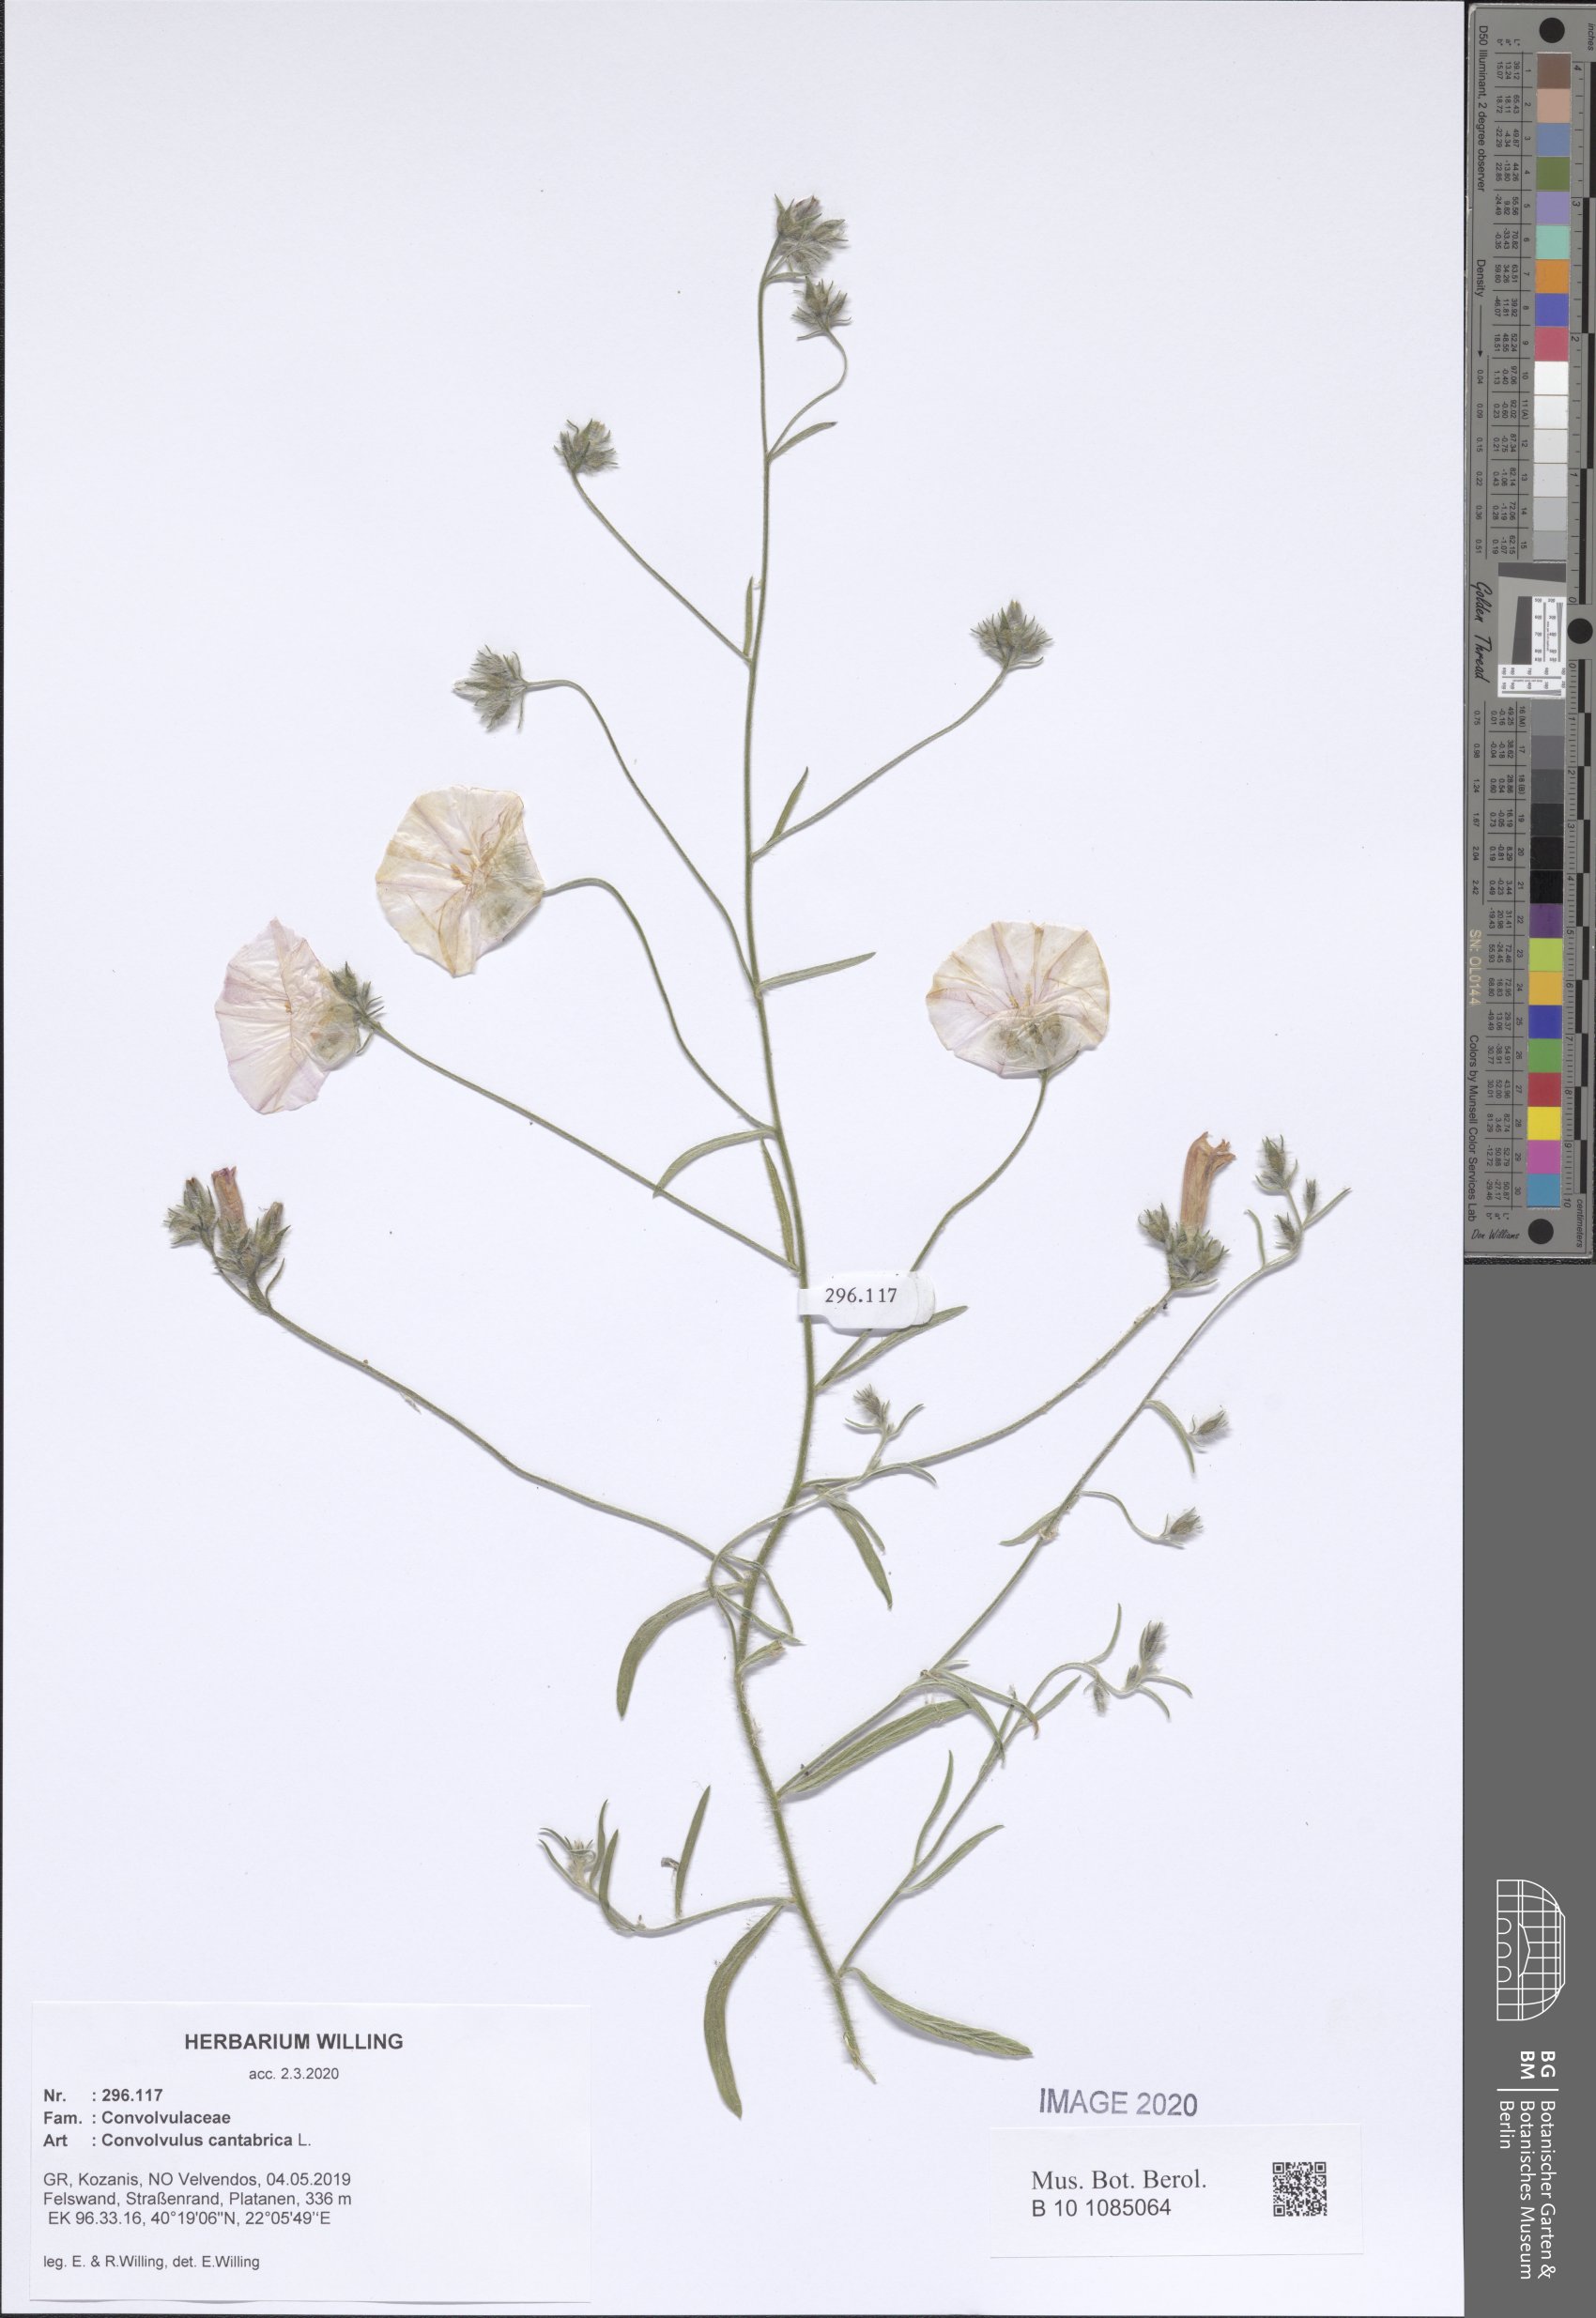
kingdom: Plantae
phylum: Tracheophyta
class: Magnoliopsida
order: Solanales
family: Convolvulaceae
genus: Convolvulus
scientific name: Convolvulus cantabrica
